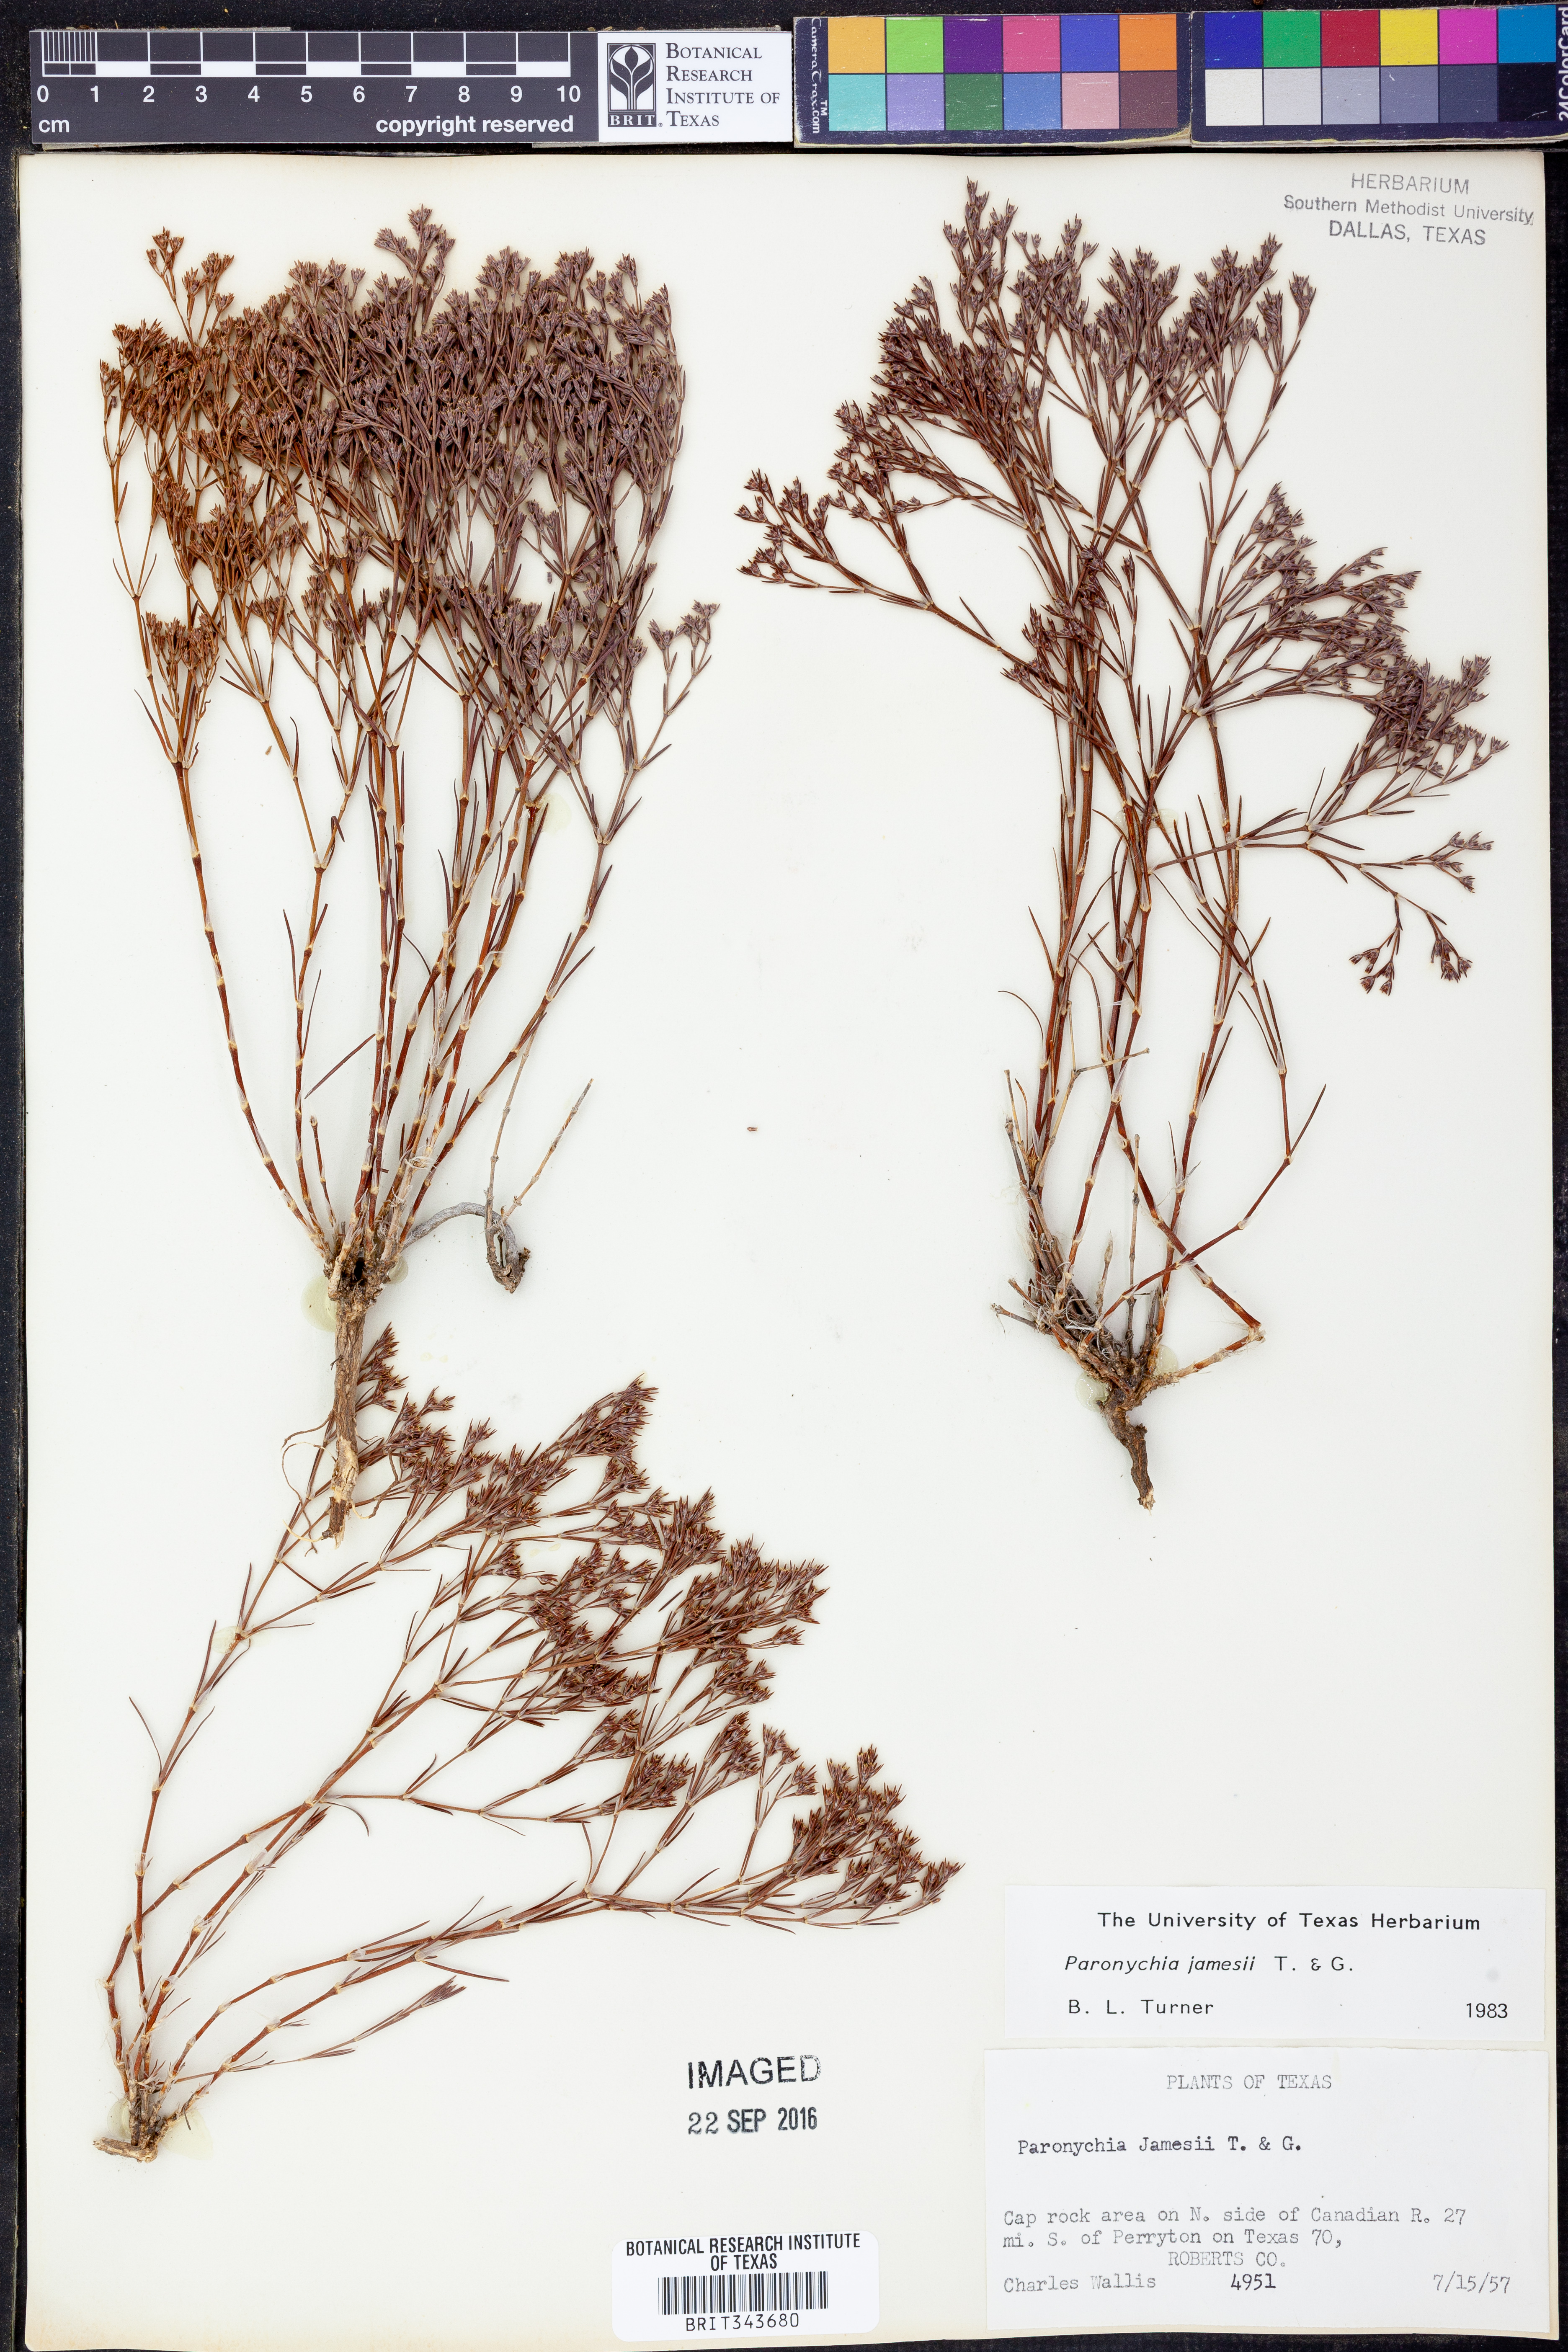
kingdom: Plantae
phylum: Tracheophyta
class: Magnoliopsida
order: Caryophyllales
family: Caryophyllaceae
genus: Paronychia
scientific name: Paronychia jamesii
